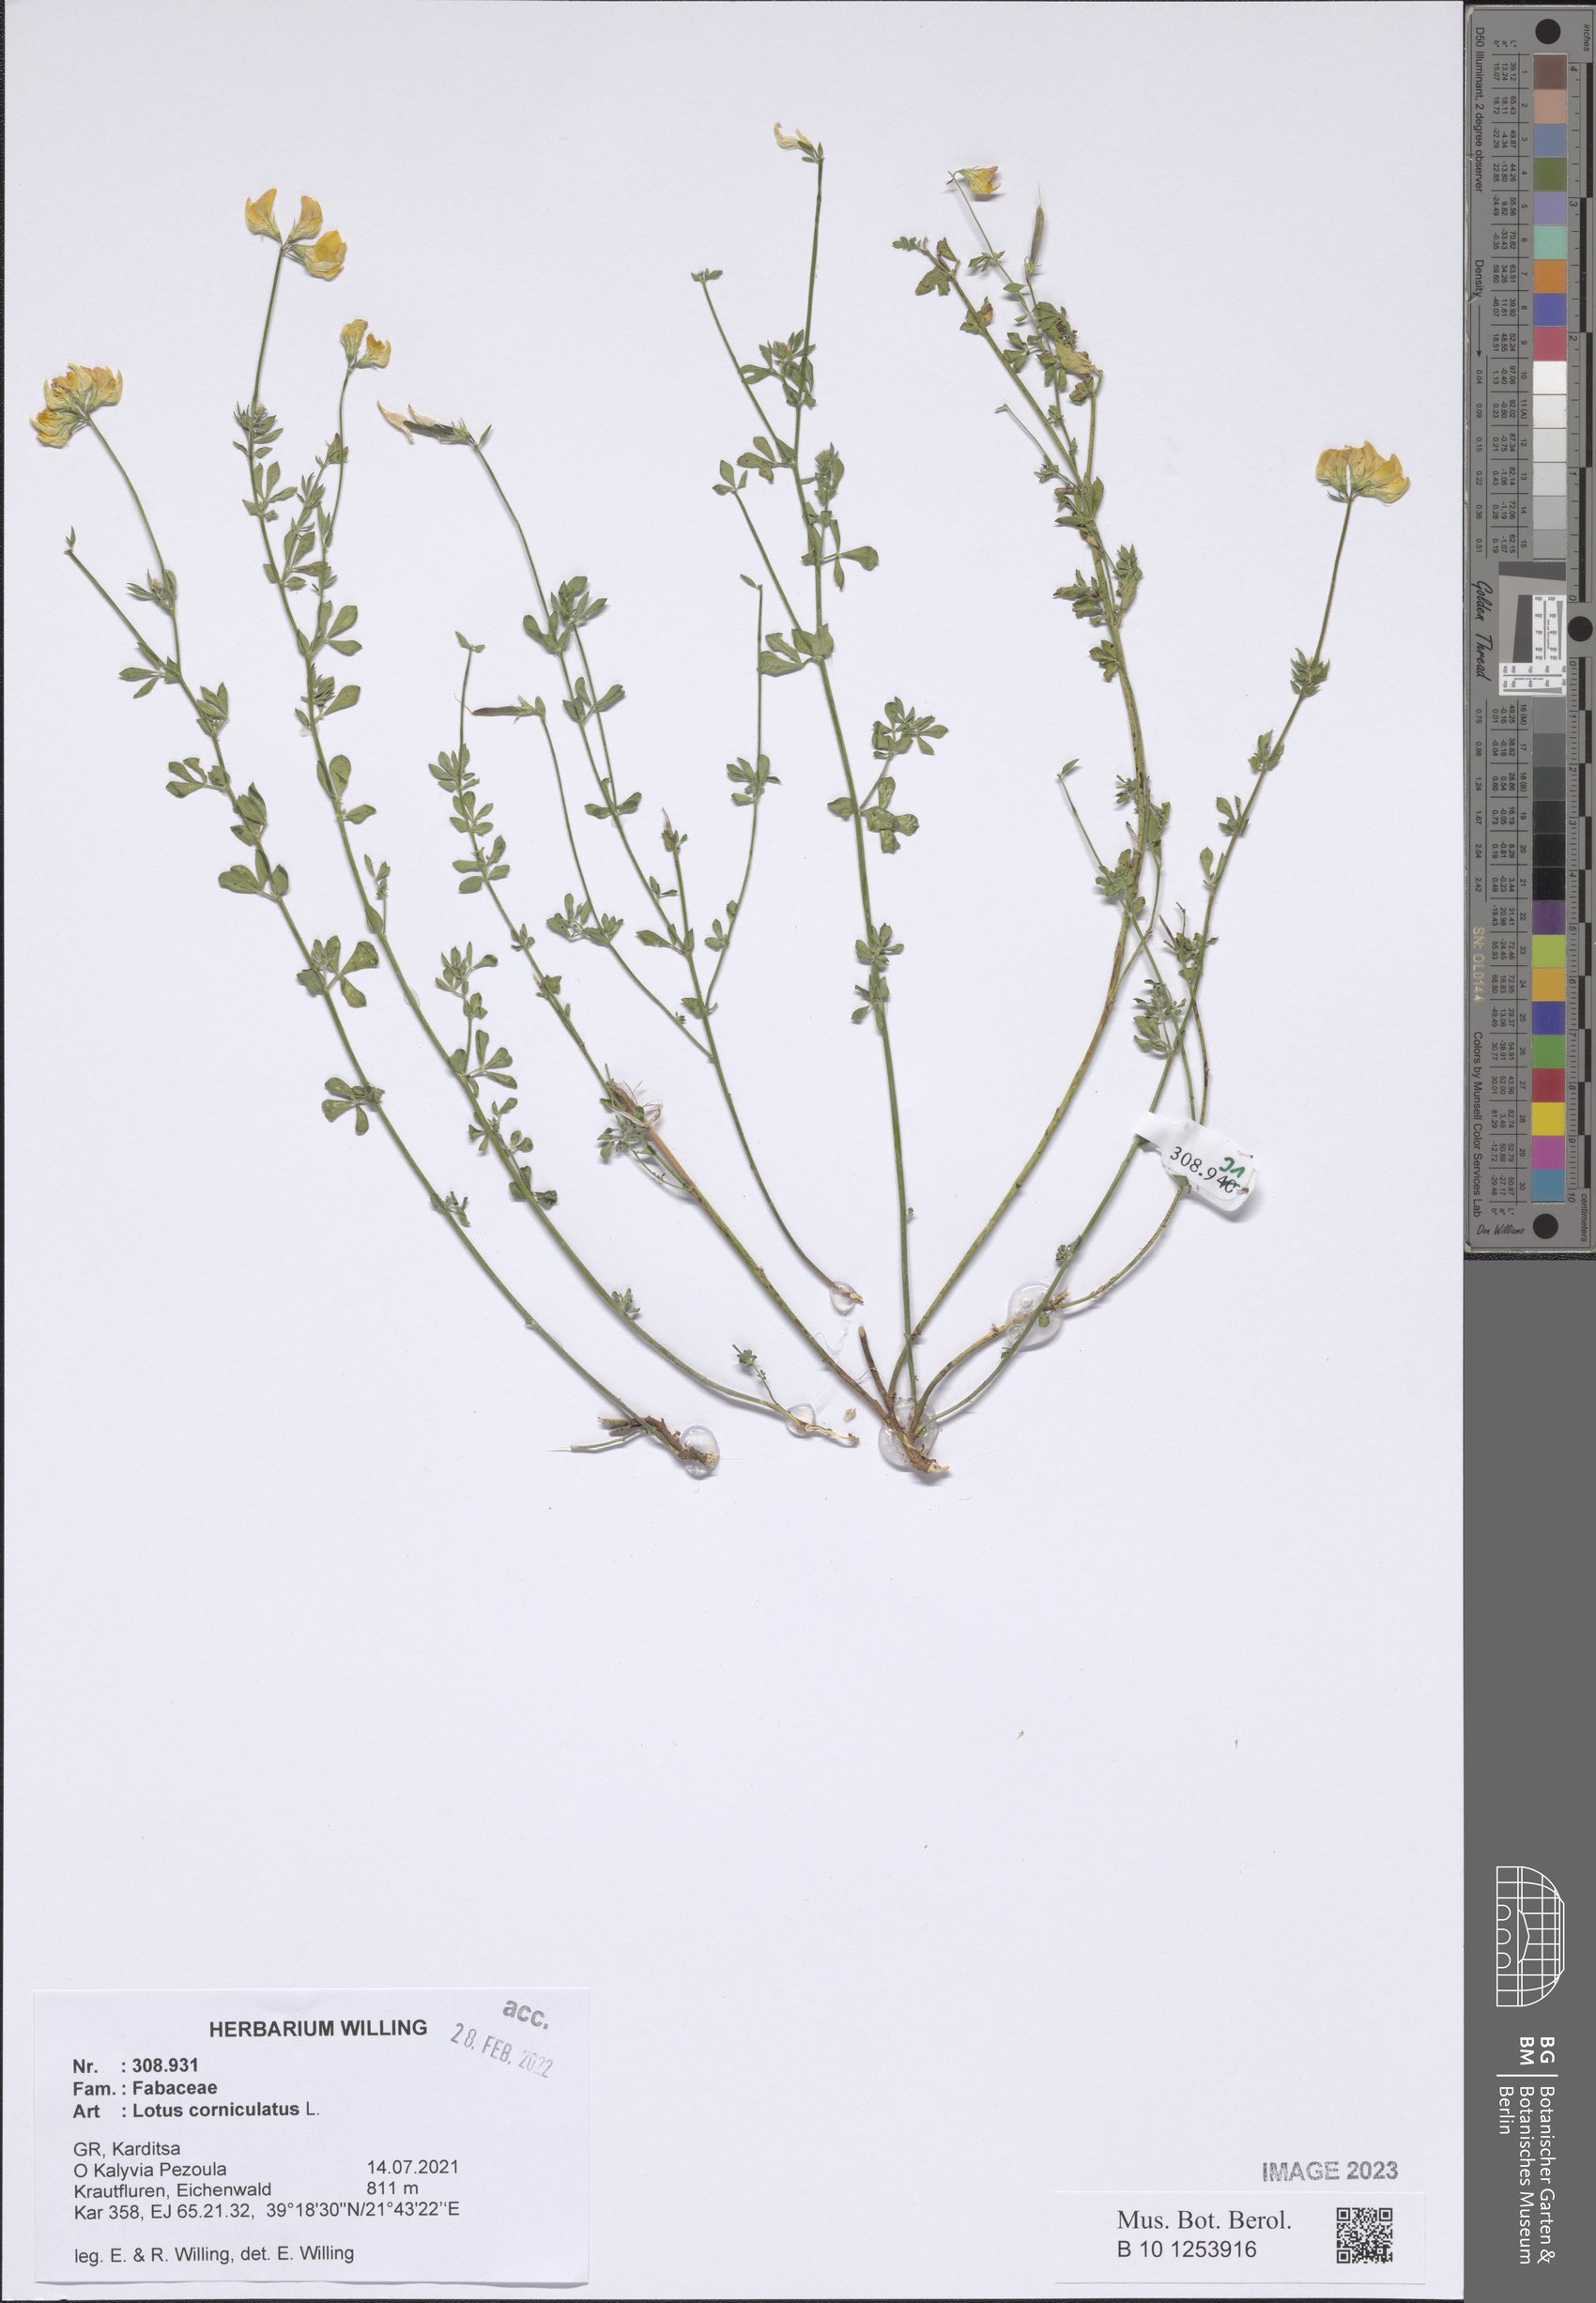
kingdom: Plantae
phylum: Tracheophyta
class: Magnoliopsida
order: Fabales
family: Fabaceae
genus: Lotus
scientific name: Lotus corniculatus
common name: Common bird's-foot-trefoil
